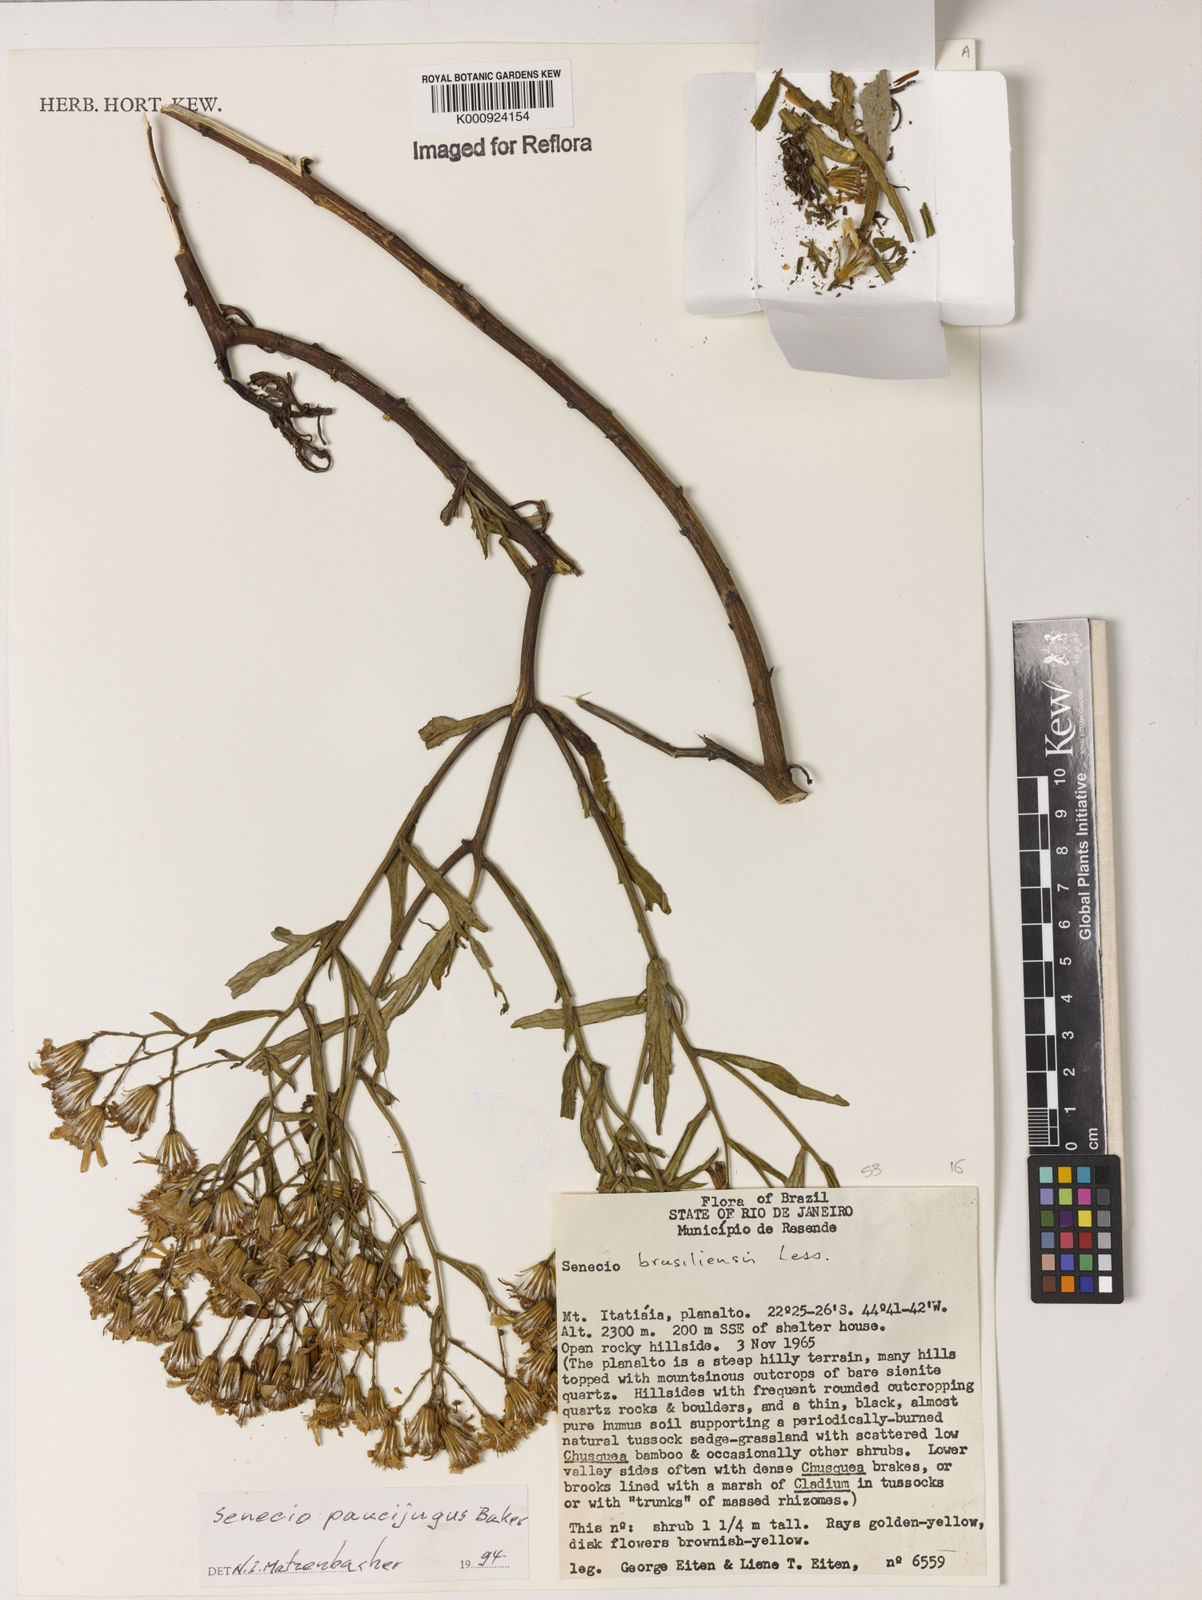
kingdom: Plantae
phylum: Tracheophyta
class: Magnoliopsida
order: Asterales
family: Asteraceae
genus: Senecio
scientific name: Senecio paucijugus
